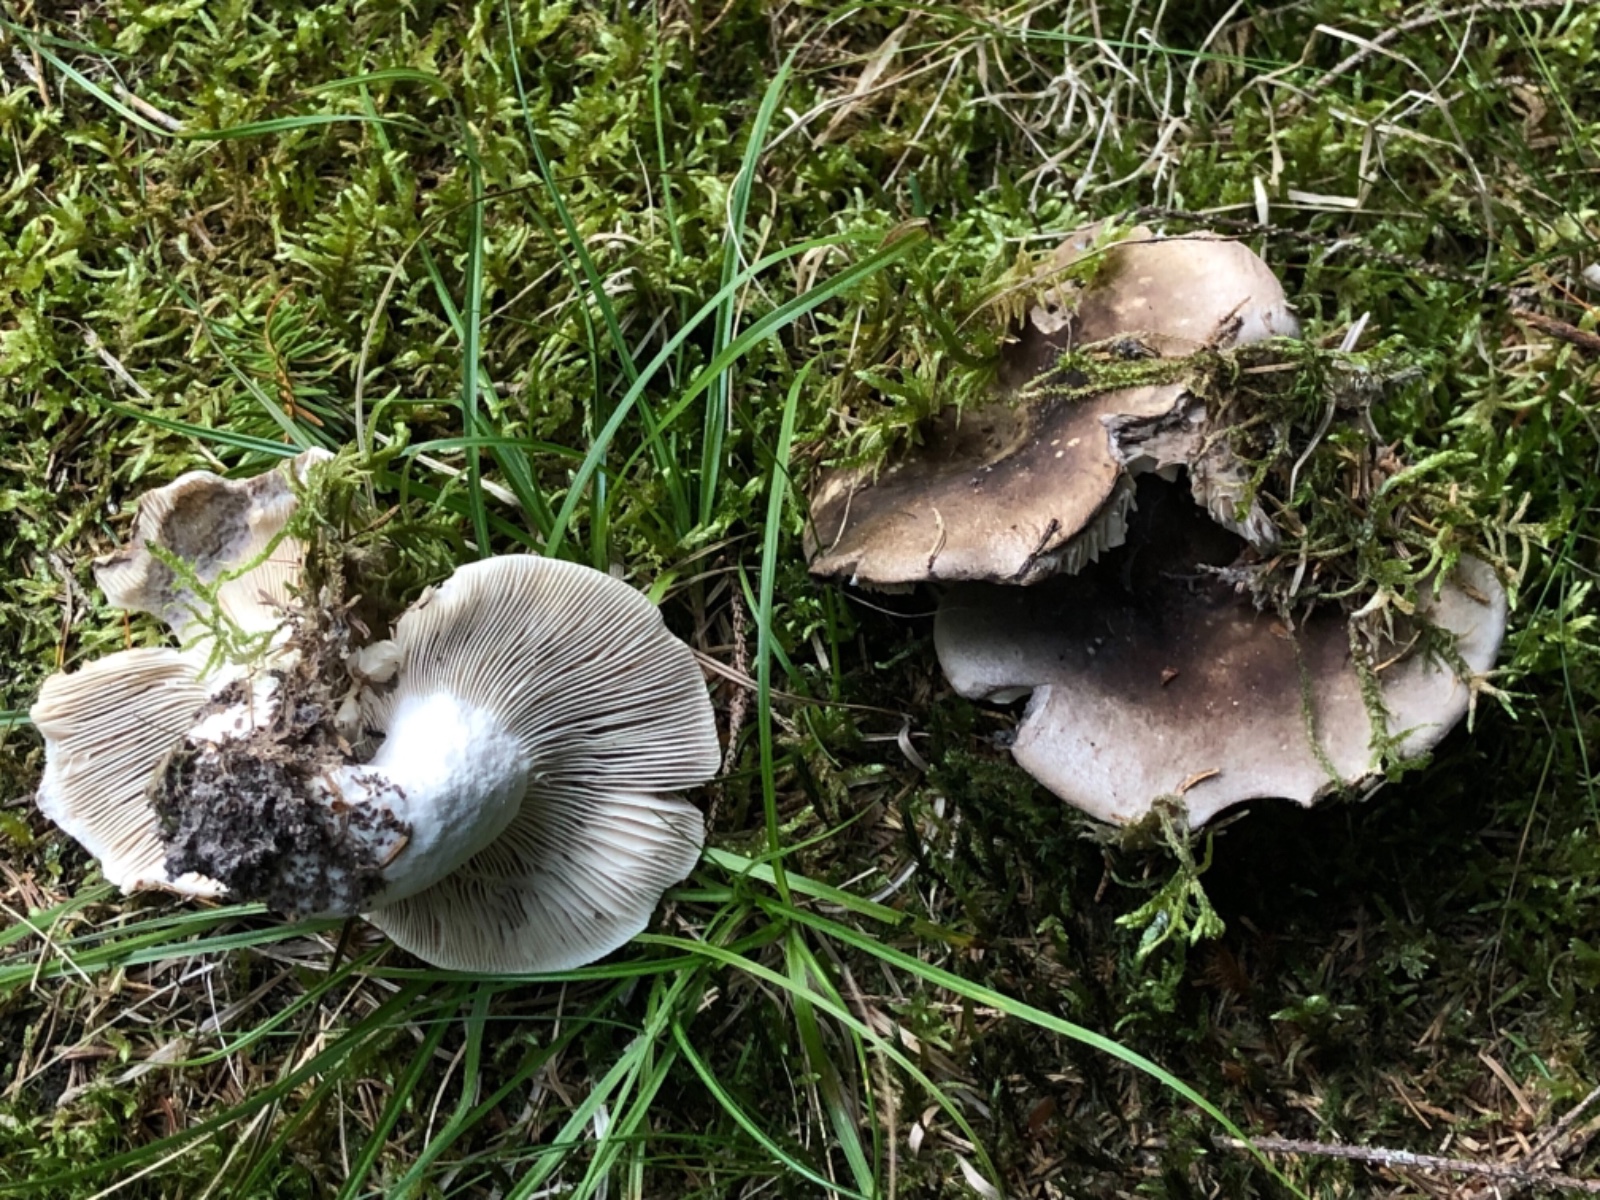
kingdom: Fungi
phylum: Basidiomycota
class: Agaricomycetes
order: Russulales
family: Russulaceae
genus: Russula
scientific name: Russula adusta
